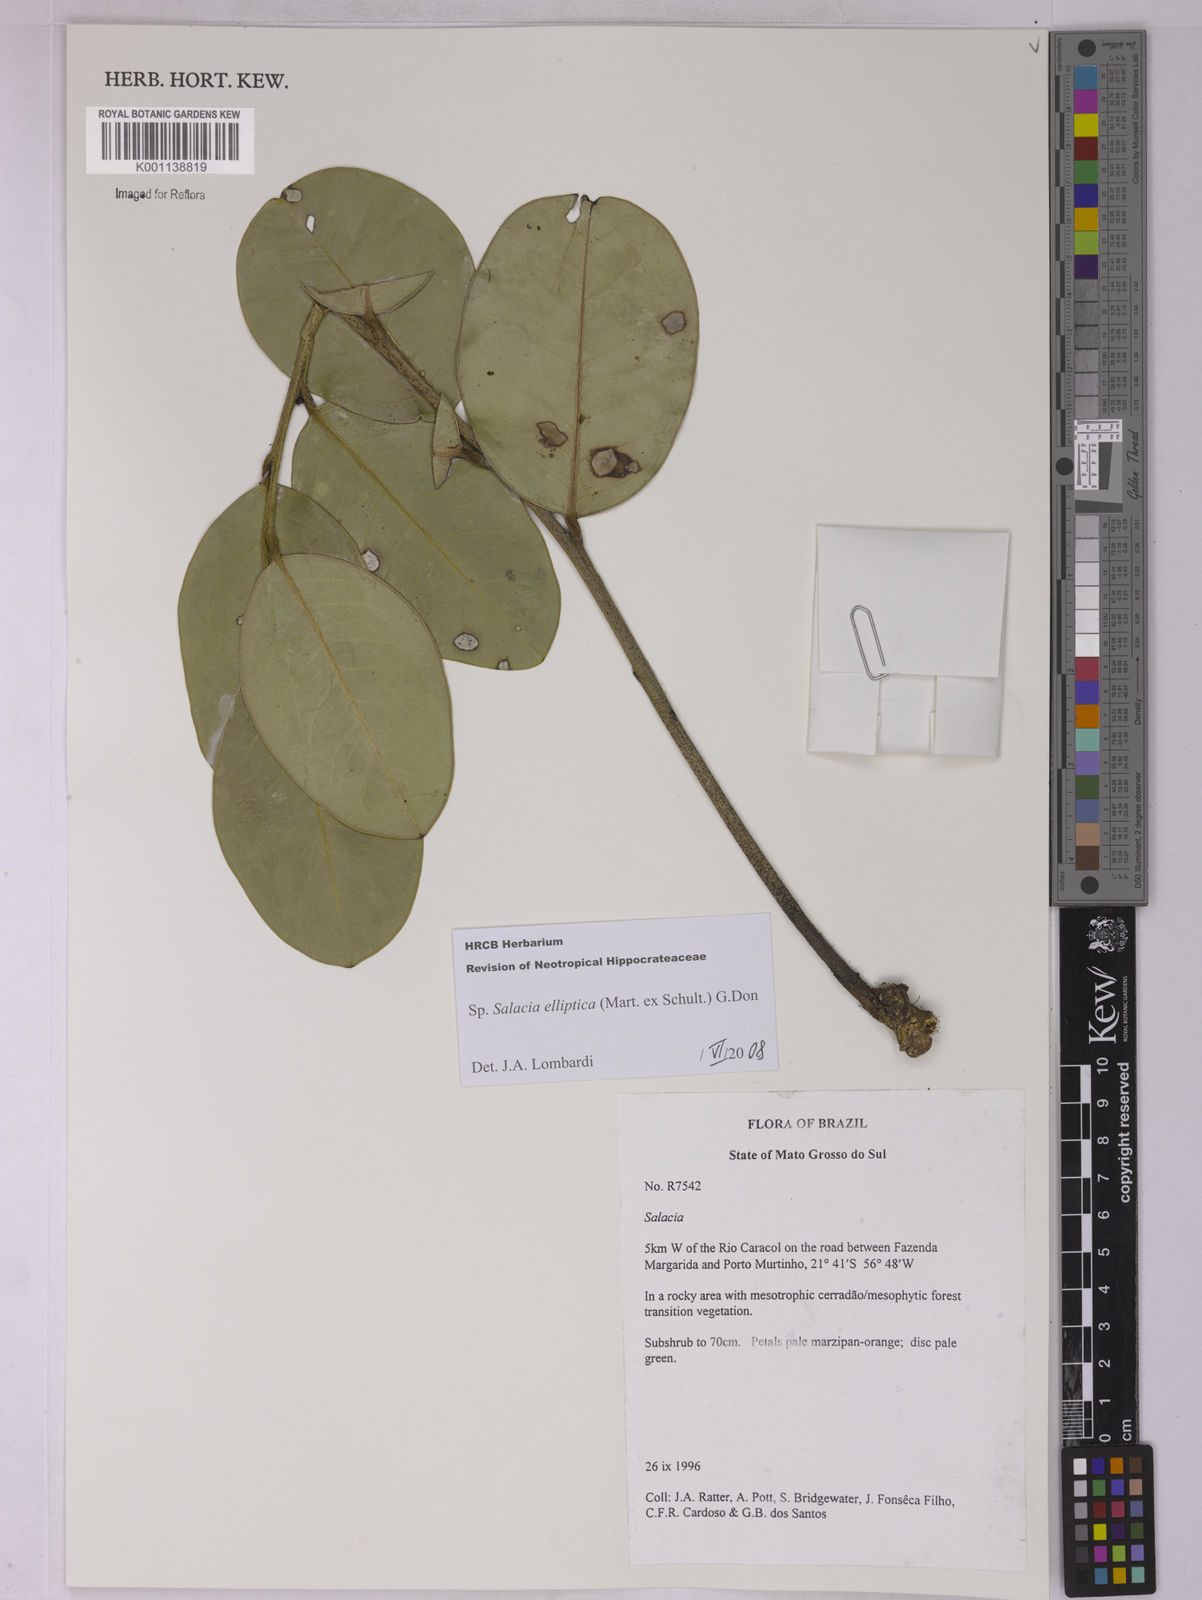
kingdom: Plantae
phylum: Tracheophyta
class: Magnoliopsida
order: Celastrales
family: Celastraceae
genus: Salacia
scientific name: Salacia elliptica
